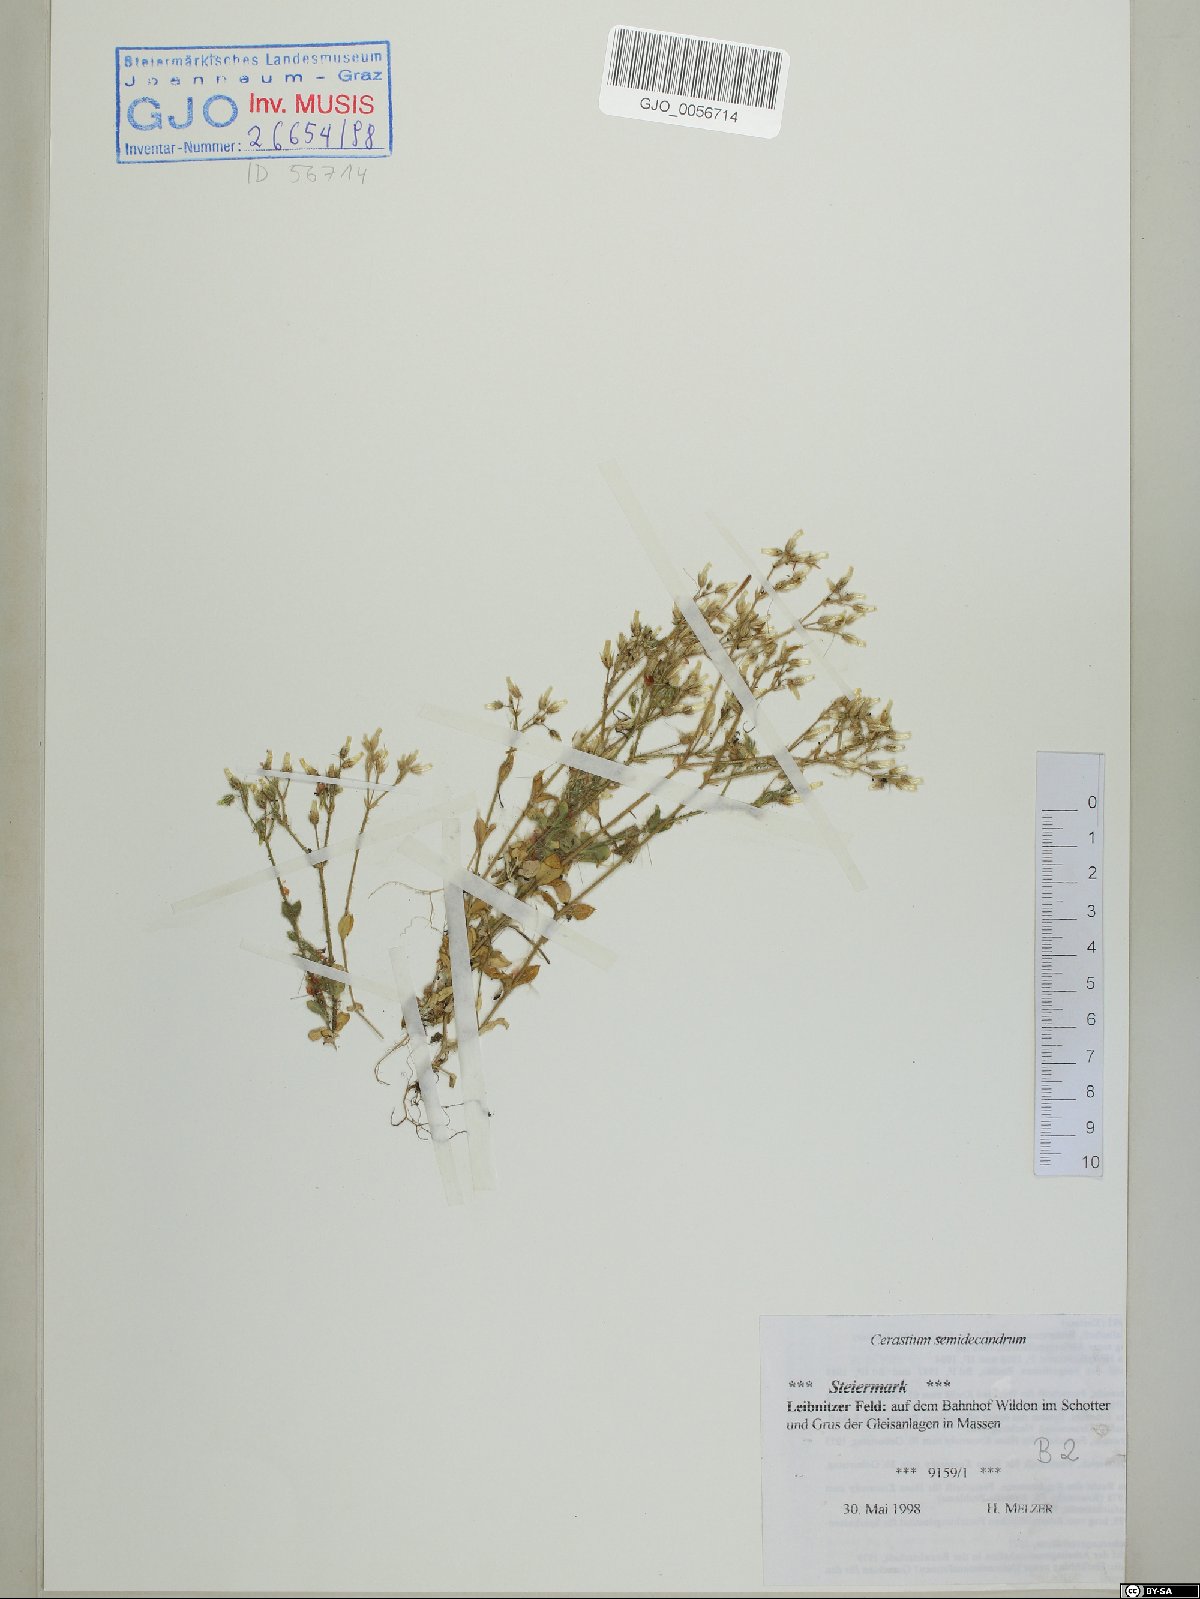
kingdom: Plantae
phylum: Tracheophyta
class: Magnoliopsida
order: Caryophyllales
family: Caryophyllaceae
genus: Cerastium
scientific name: Cerastium semidecandrum
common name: Little mouse-ear
